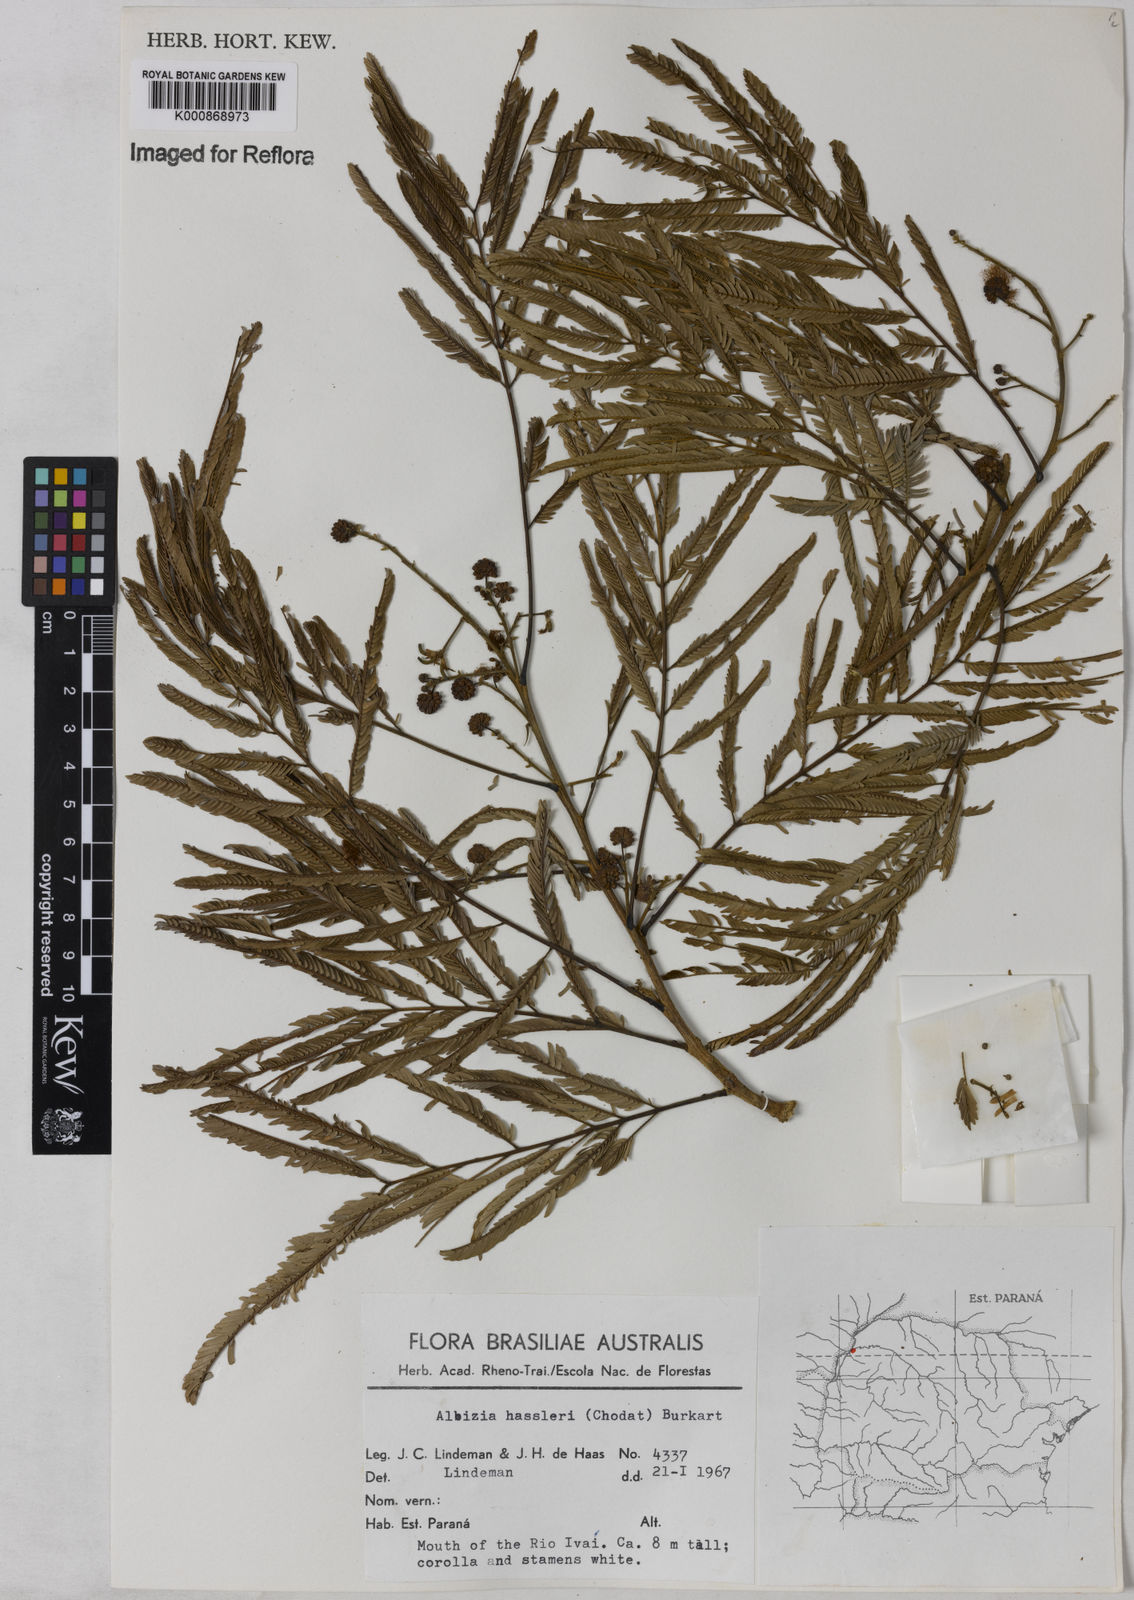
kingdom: Plantae
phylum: Tracheophyta
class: Magnoliopsida
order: Fabales
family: Fabaceae
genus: Albizia
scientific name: Albizia niopoides
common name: Silk tree
